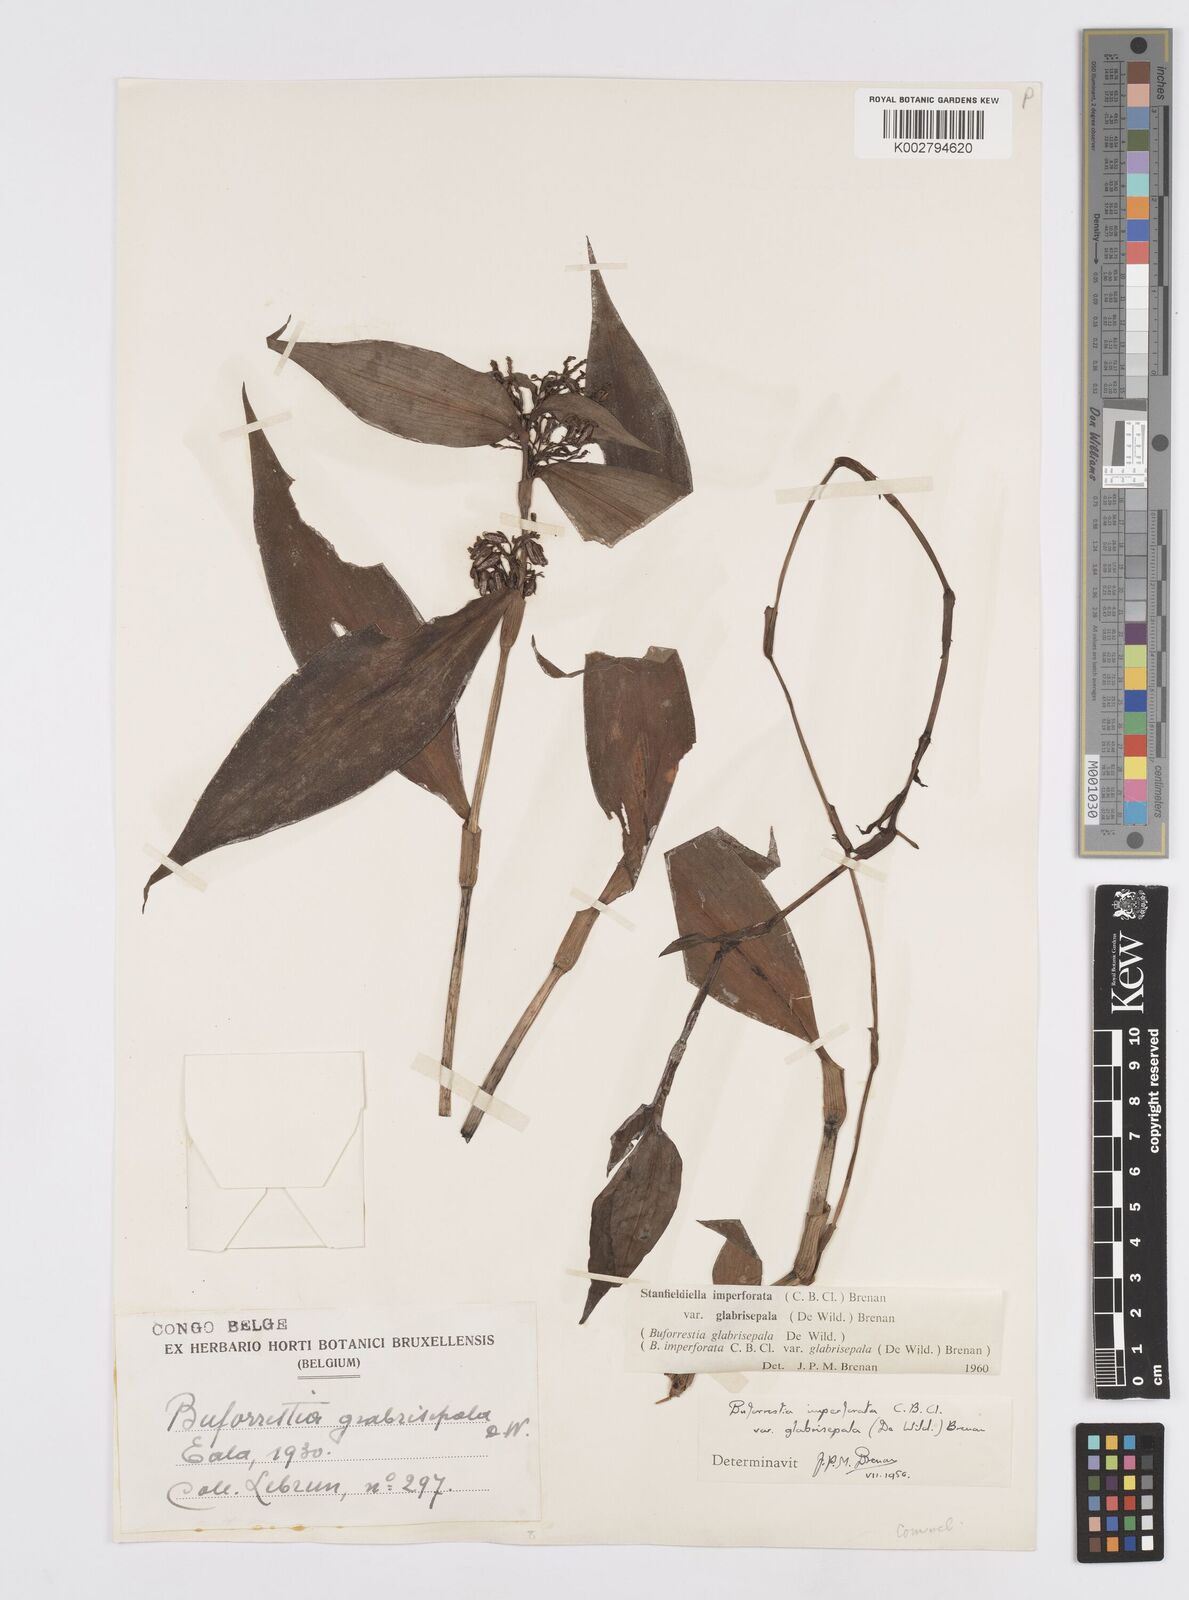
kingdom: Plantae
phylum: Tracheophyta
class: Liliopsida
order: Commelinales
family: Commelinaceae
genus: Stanfieldiella
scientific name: Stanfieldiella imperforata
